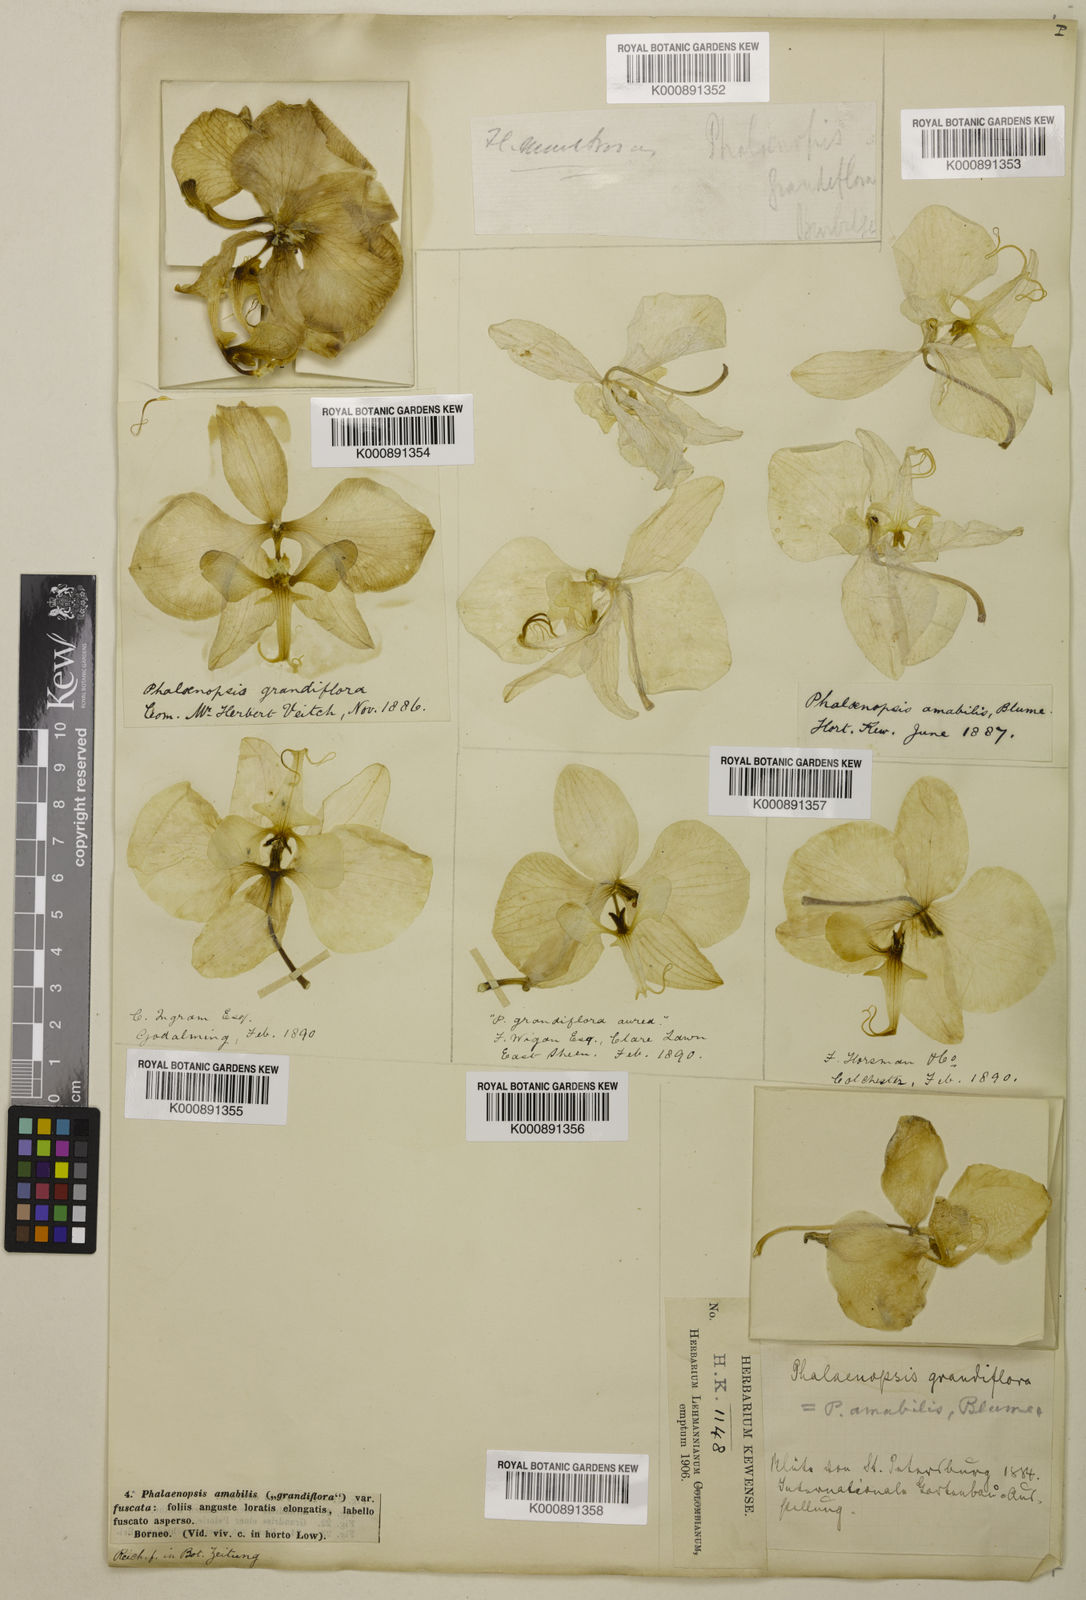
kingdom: Plantae
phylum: Tracheophyta
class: Liliopsida
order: Asparagales
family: Orchidaceae
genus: Phalaenopsis
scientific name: Phalaenopsis amabilis
